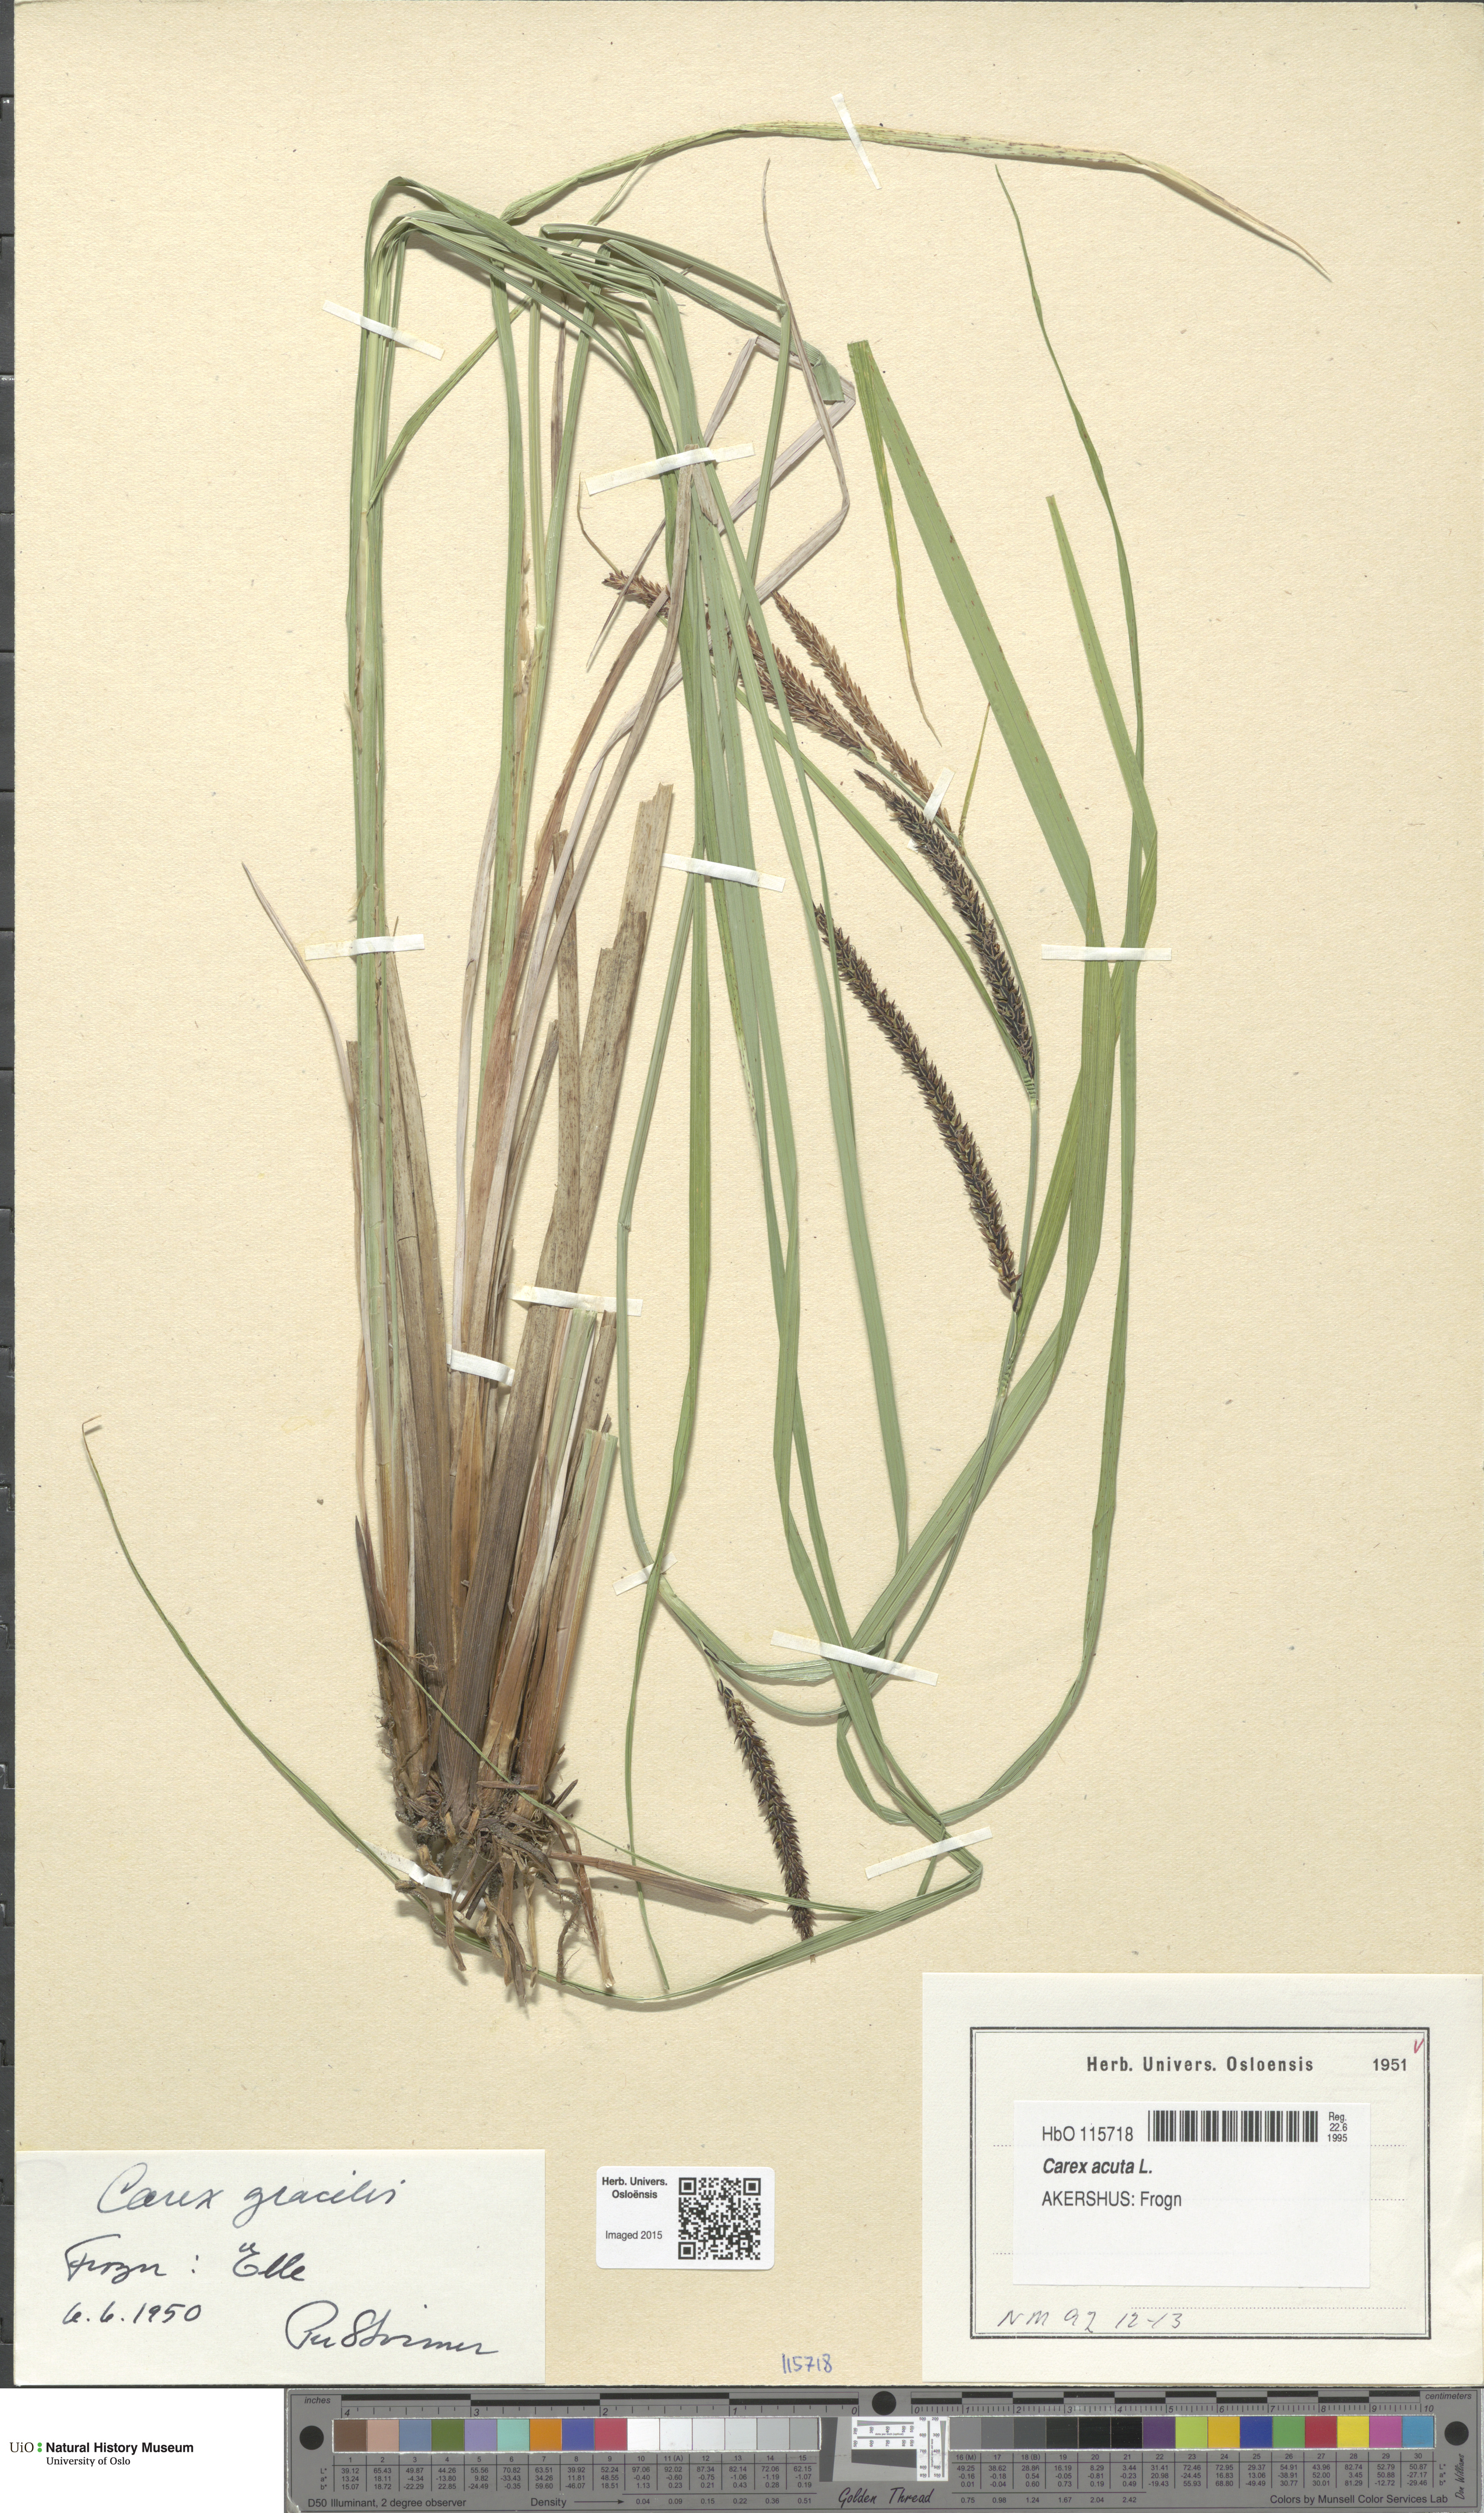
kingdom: Plantae
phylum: Tracheophyta
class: Liliopsida
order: Poales
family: Cyperaceae
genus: Carex
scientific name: Carex acuta
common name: Slender tufted-sedge
